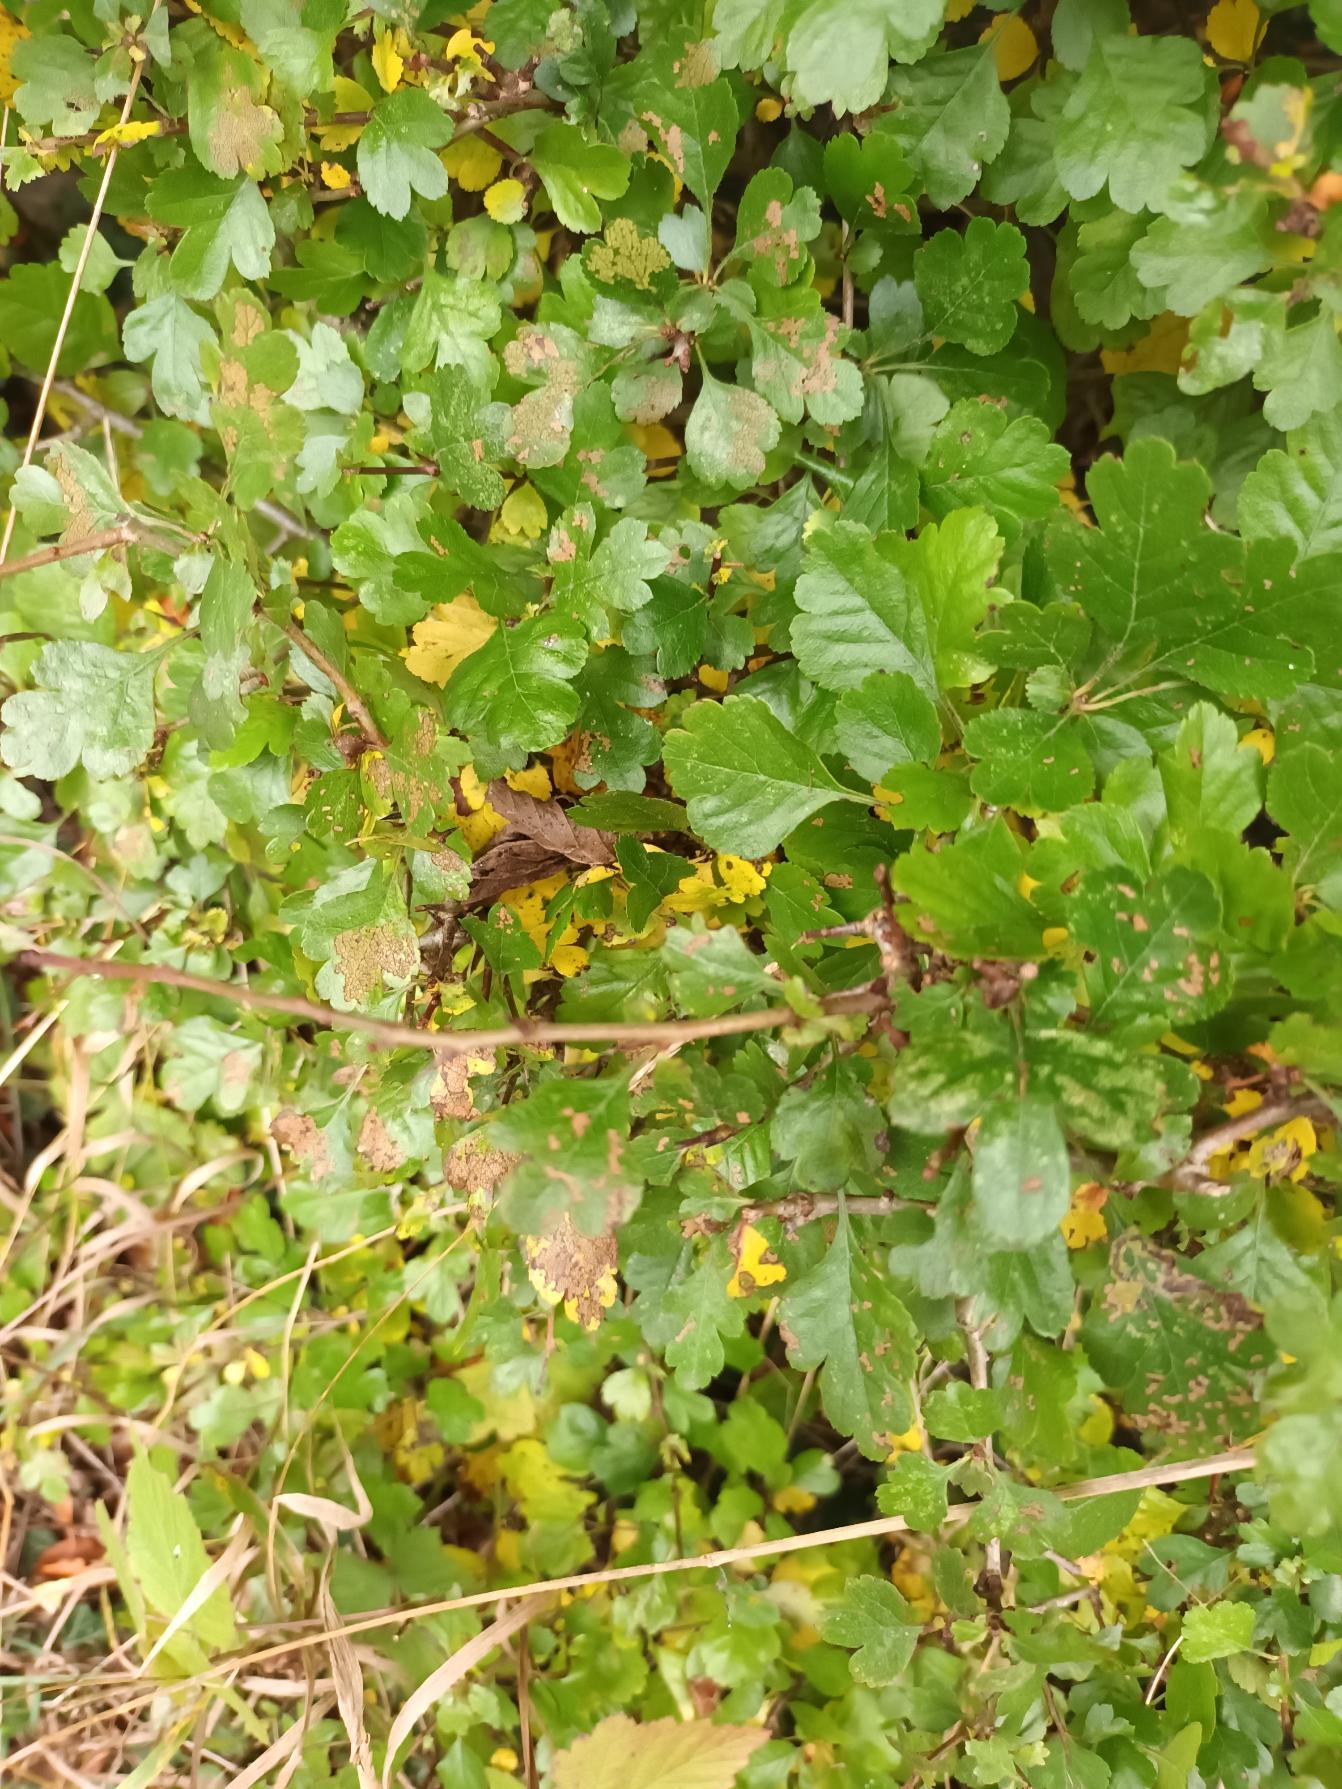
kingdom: Plantae
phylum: Tracheophyta
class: Magnoliopsida
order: Rosales
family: Rosaceae
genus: Crataegus
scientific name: Crataegus laevigata
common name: Almindelig hvidtjørn
